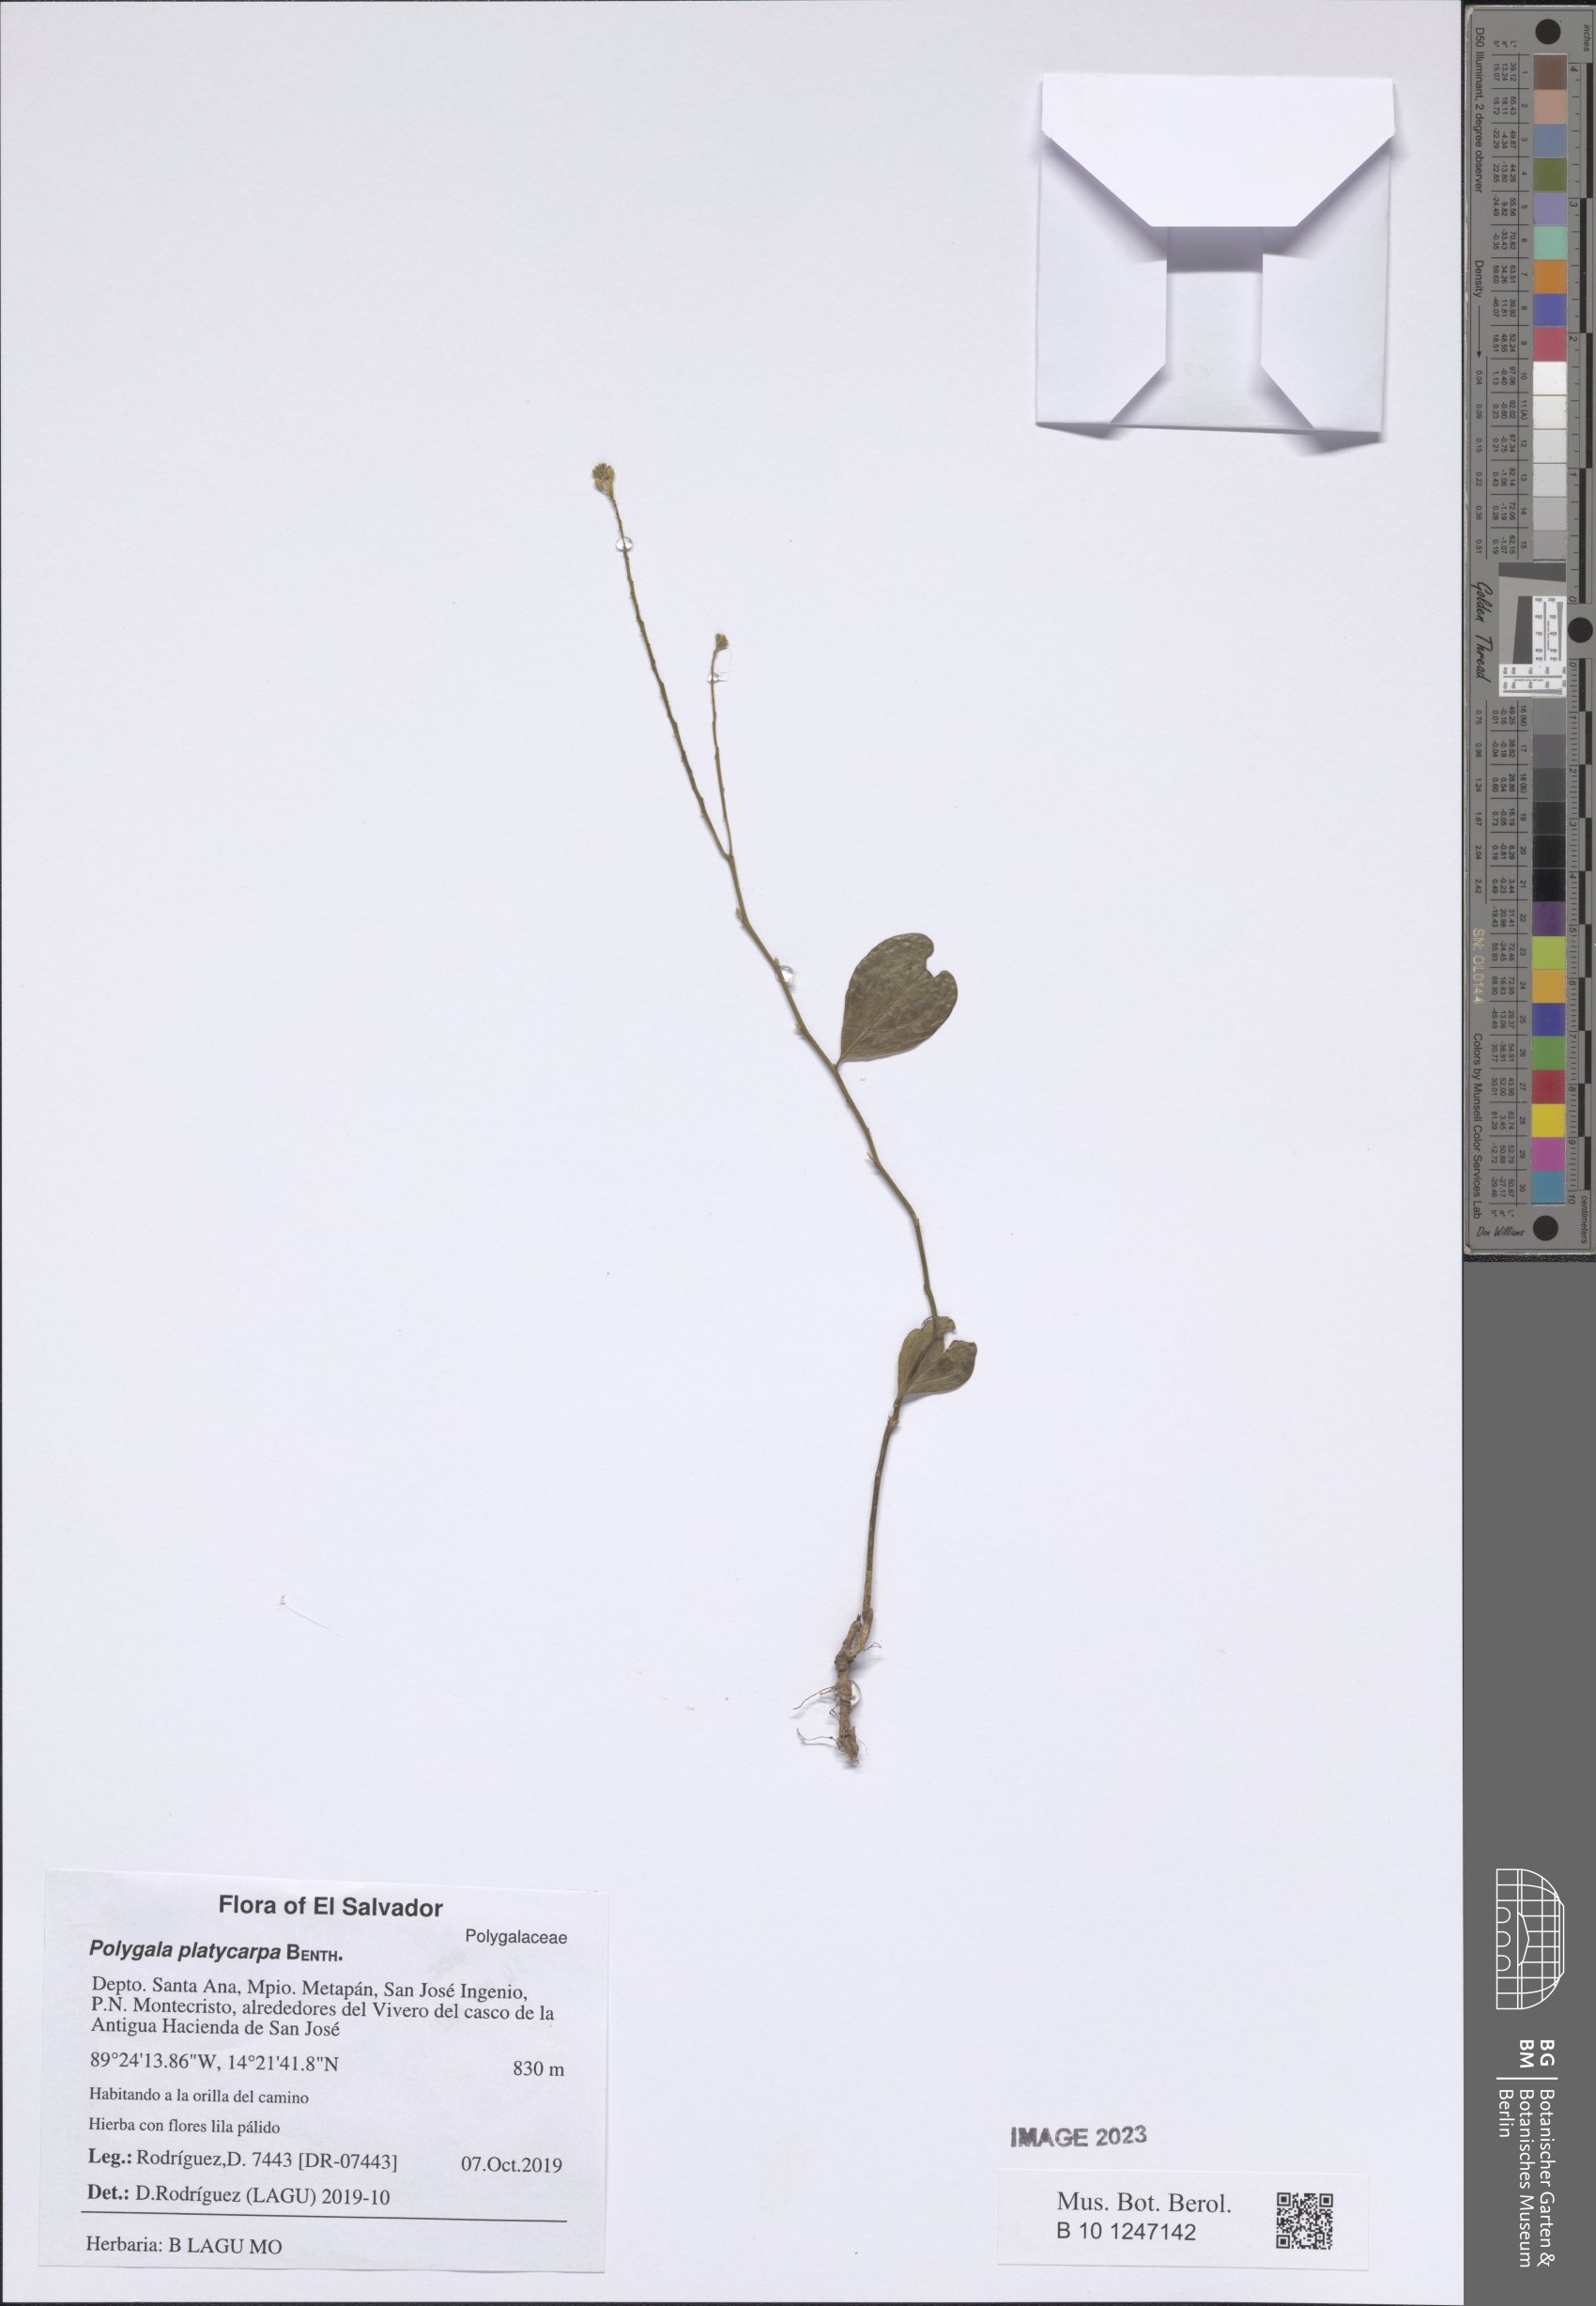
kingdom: Plantae
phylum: Tracheophyta
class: Magnoliopsida
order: Fabales
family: Polygalaceae
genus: Hebecarpa
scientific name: Hebecarpa platycarpa
